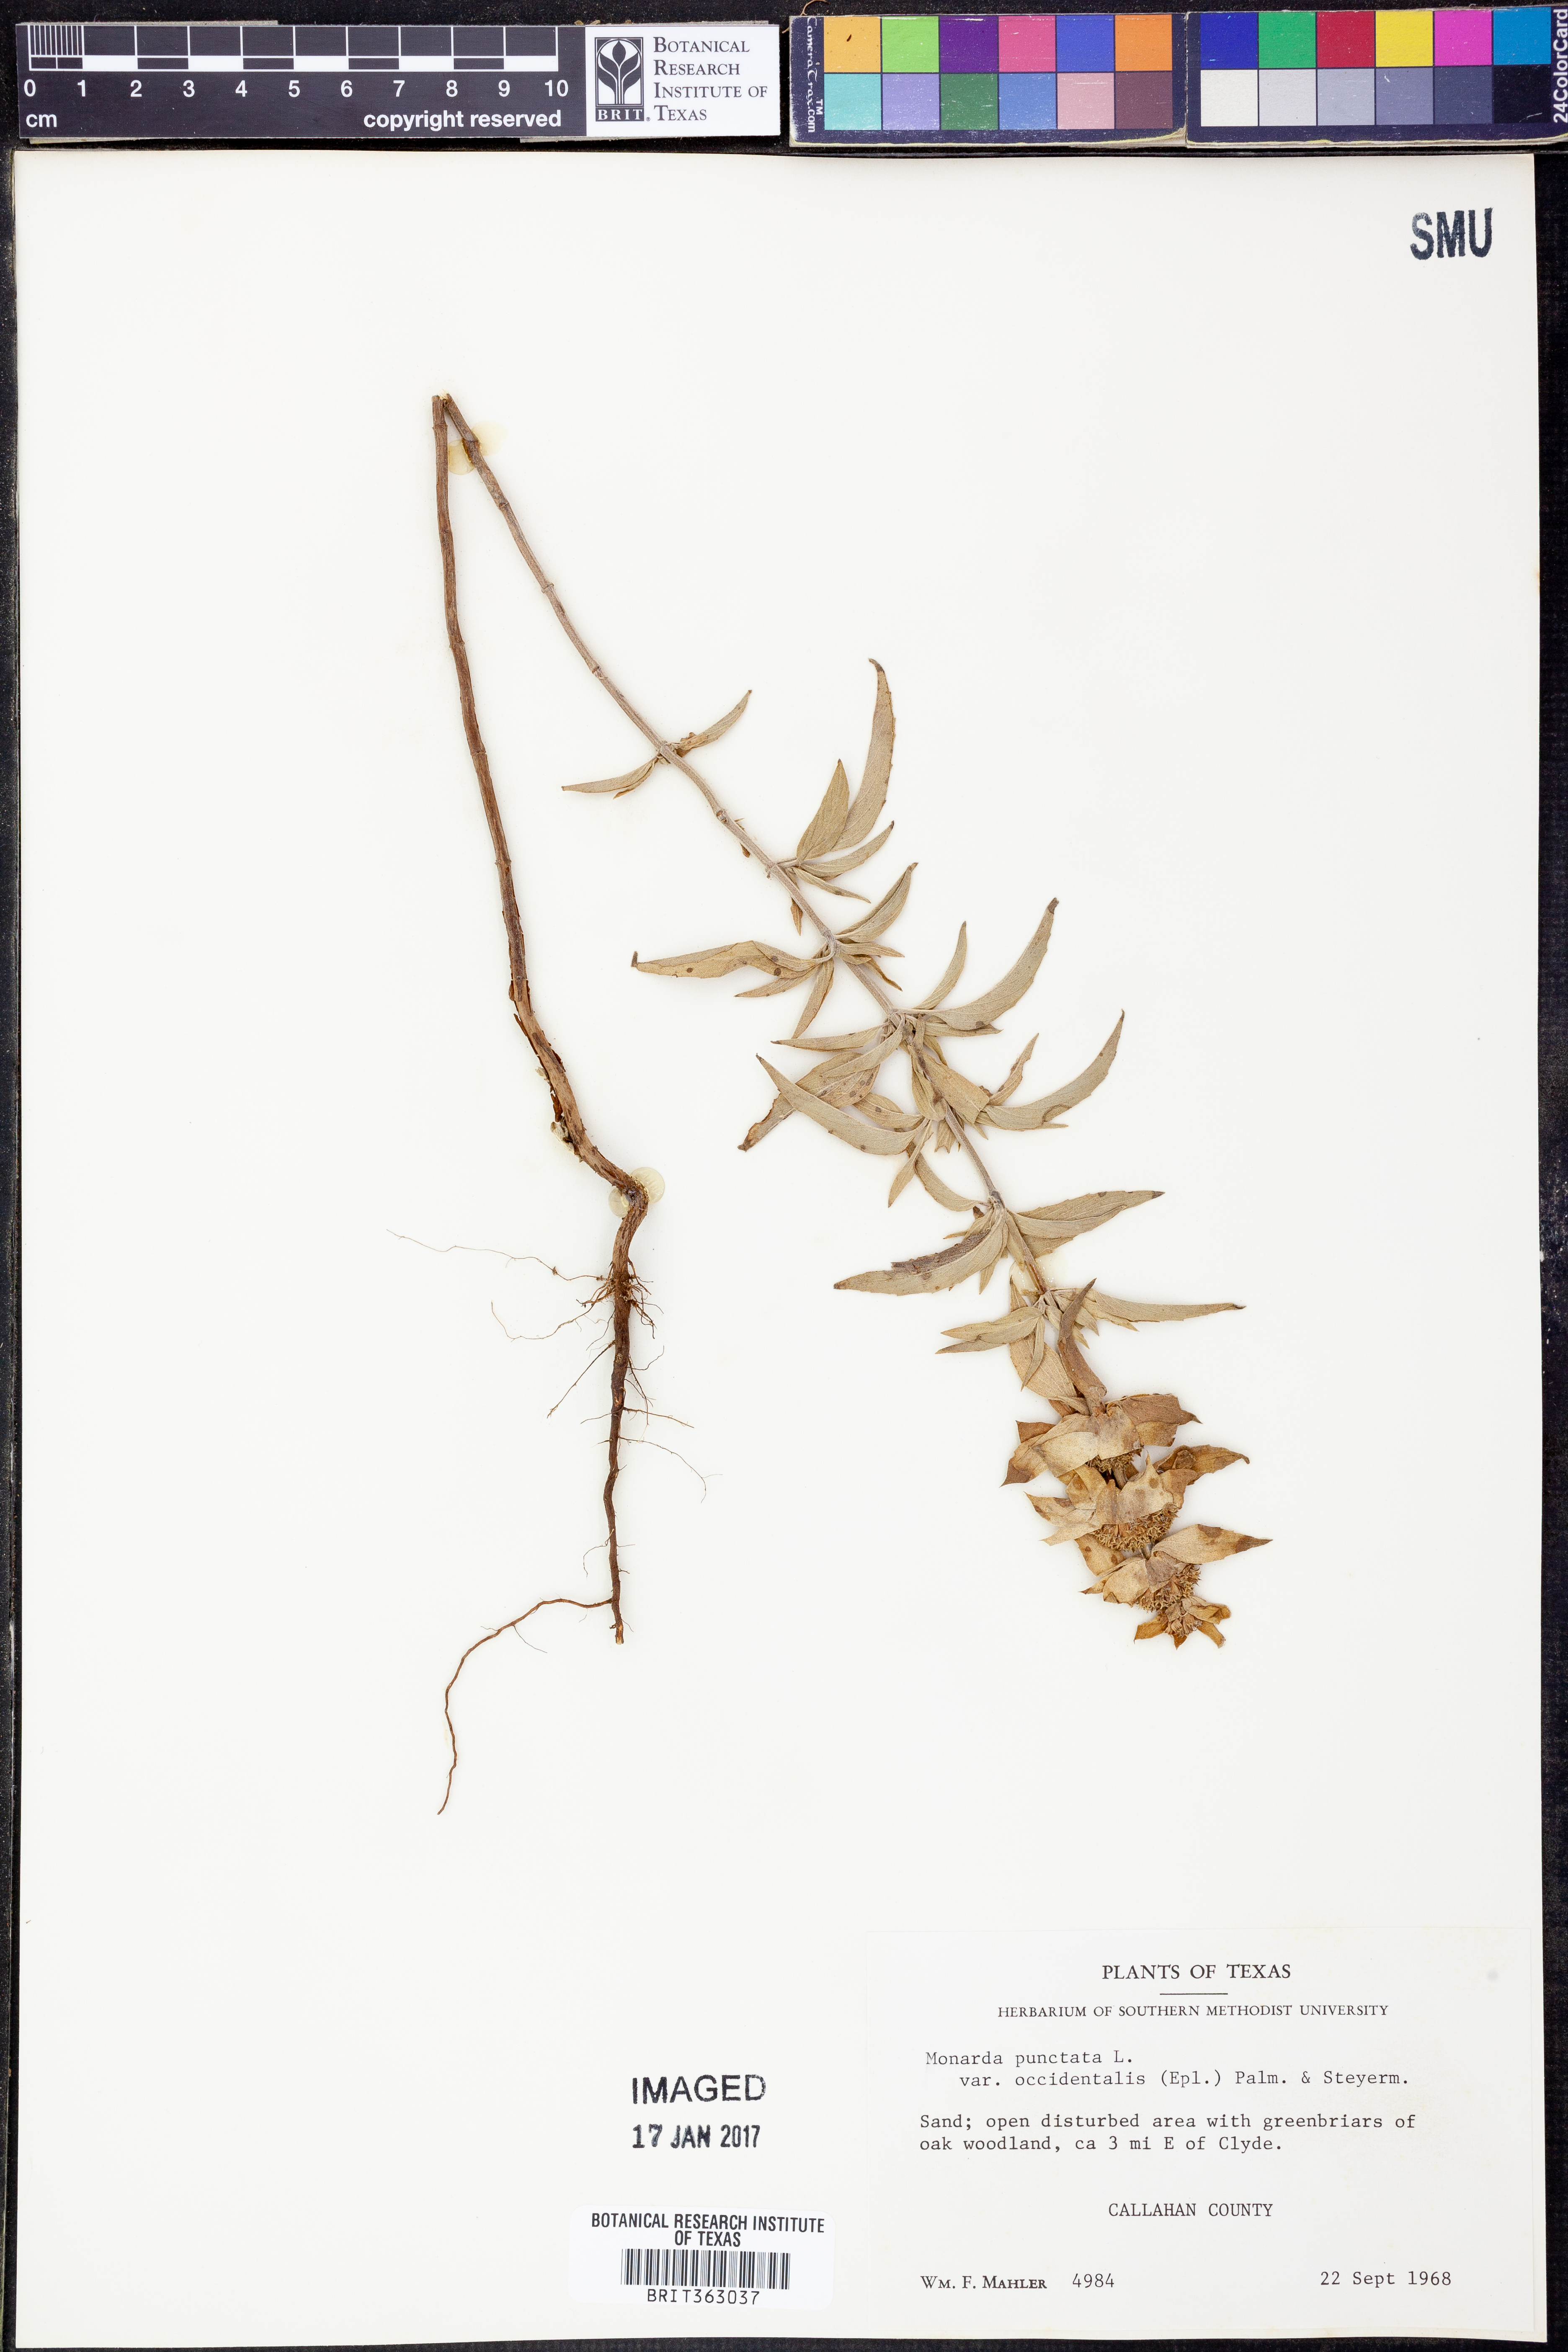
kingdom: Plantae
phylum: Tracheophyta
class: Magnoliopsida
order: Lamiales
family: Lamiaceae
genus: Monarda
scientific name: Monarda punctata
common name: Dotted monarda
